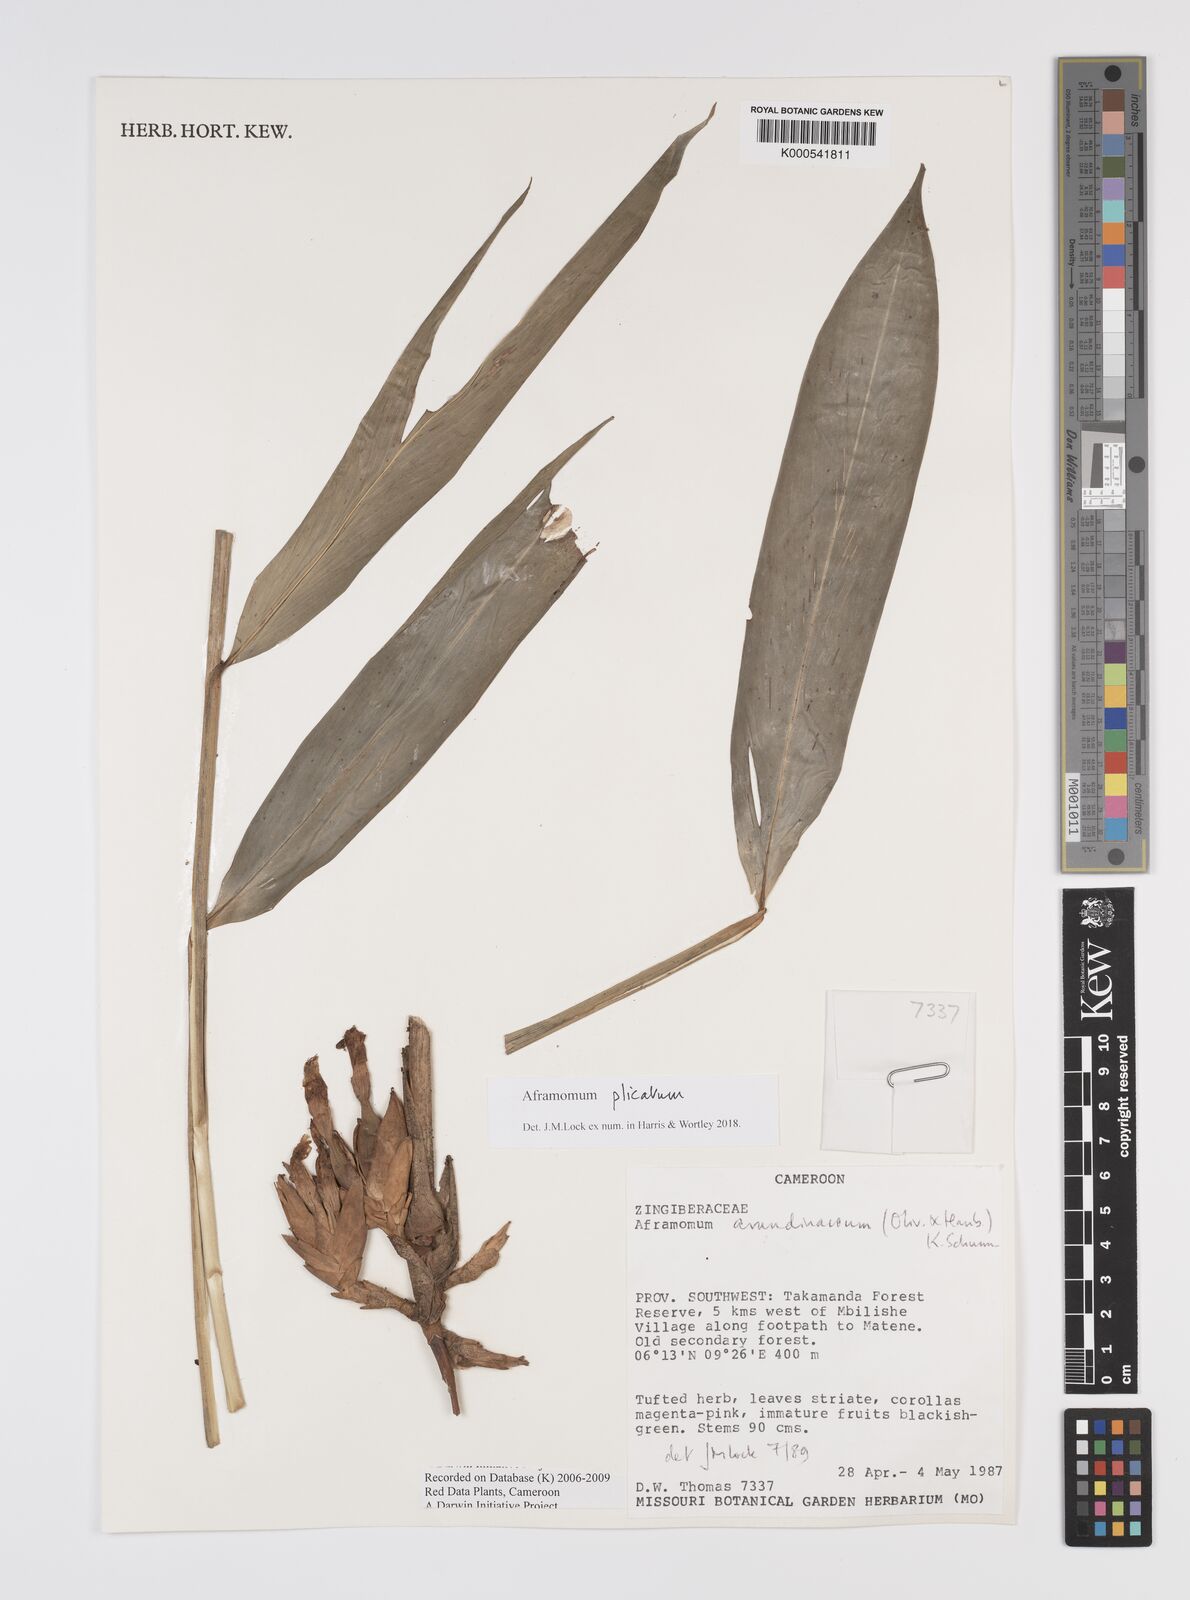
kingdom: Plantae
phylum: Tracheophyta
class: Liliopsida
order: Zingiberales
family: Zingiberaceae
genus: Aframomum
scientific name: Aframomum arundinaceum
